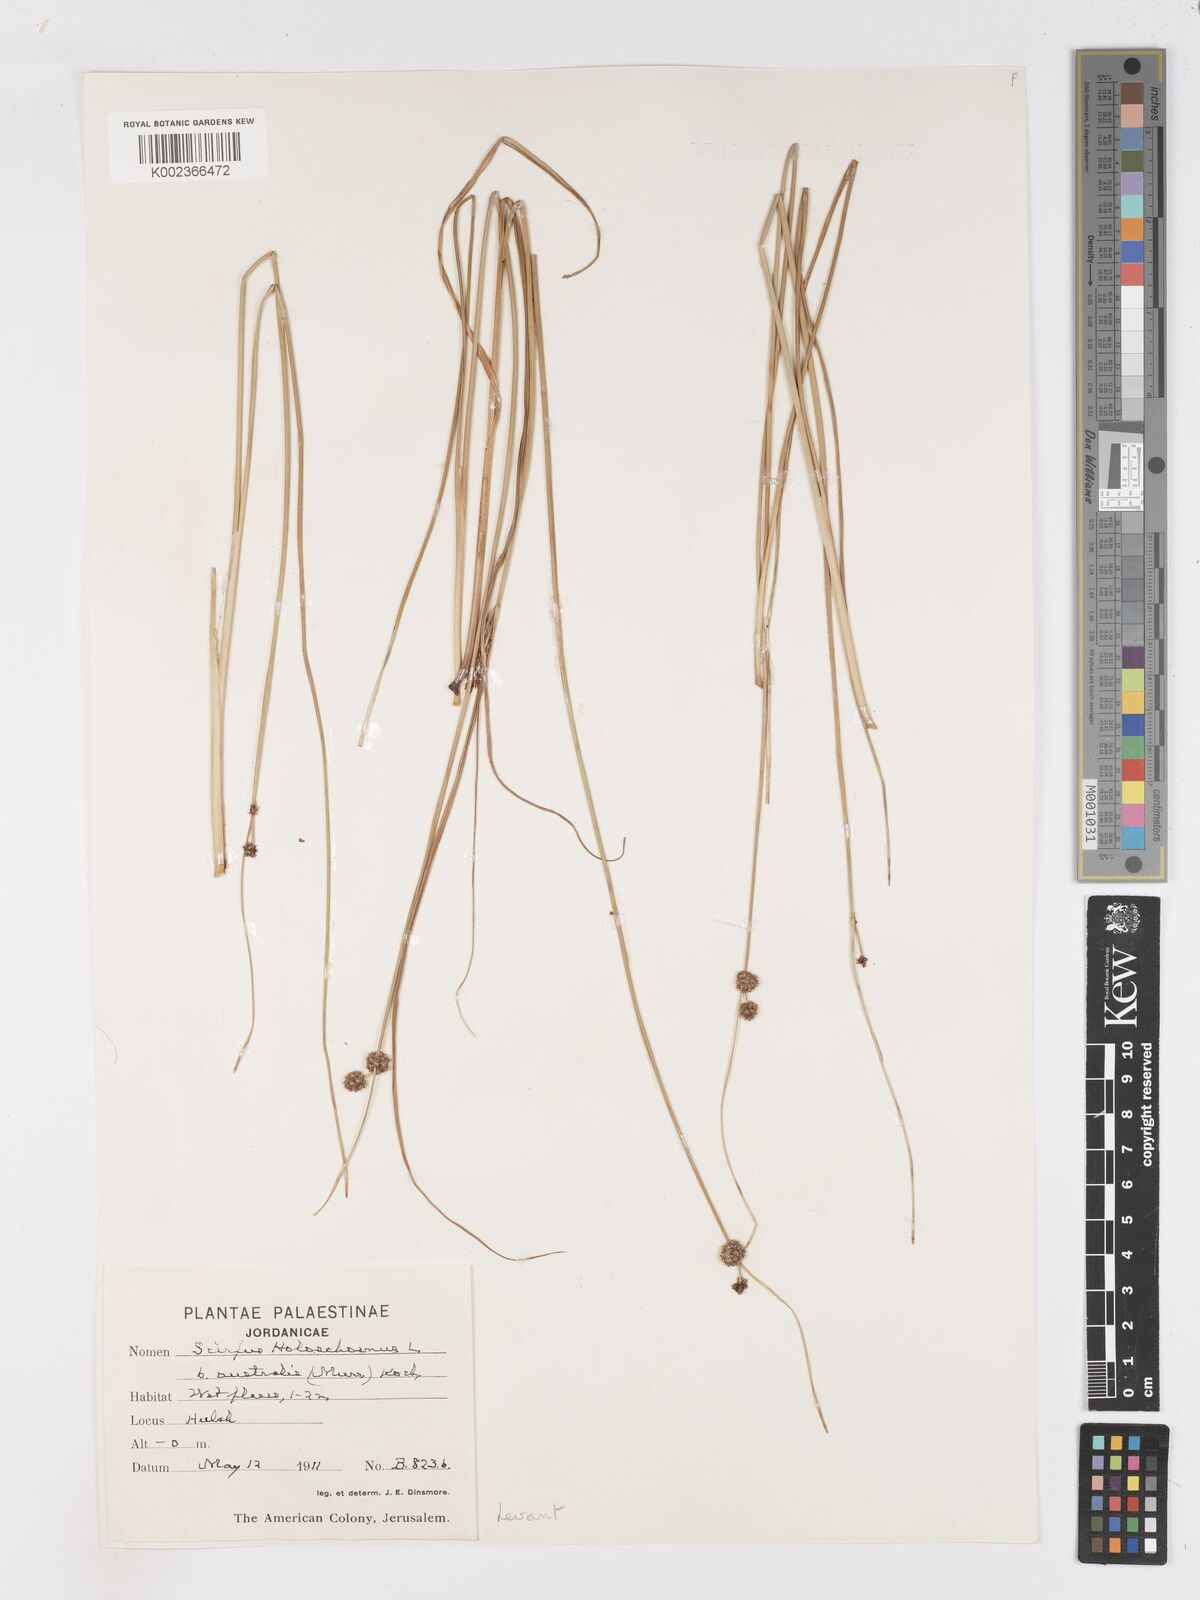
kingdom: Plantae
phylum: Tracheophyta
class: Liliopsida
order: Poales
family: Cyperaceae
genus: Scirpoides
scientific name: Scirpoides holoschoenus
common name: Round-headed club-rush
